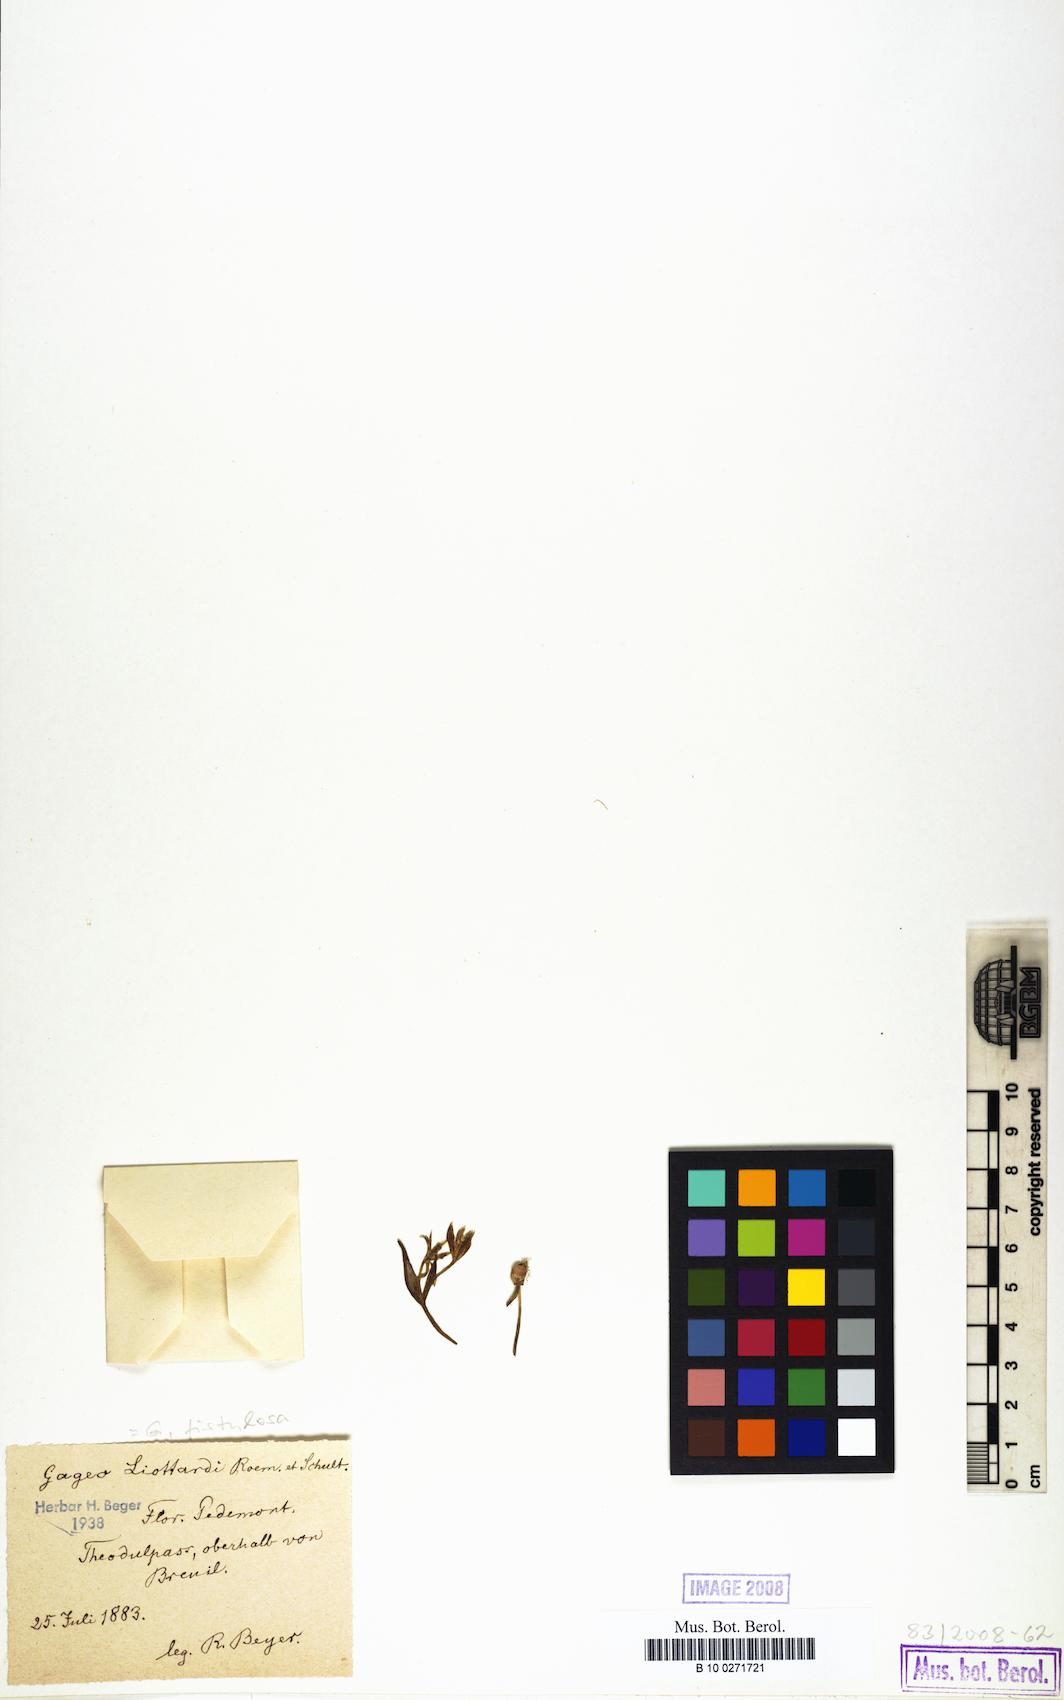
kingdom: Plantae
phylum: Tracheophyta
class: Liliopsida
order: Liliales
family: Liliaceae
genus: Gagea
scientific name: Gagea bohemica
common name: Early star-of-bethlehem
